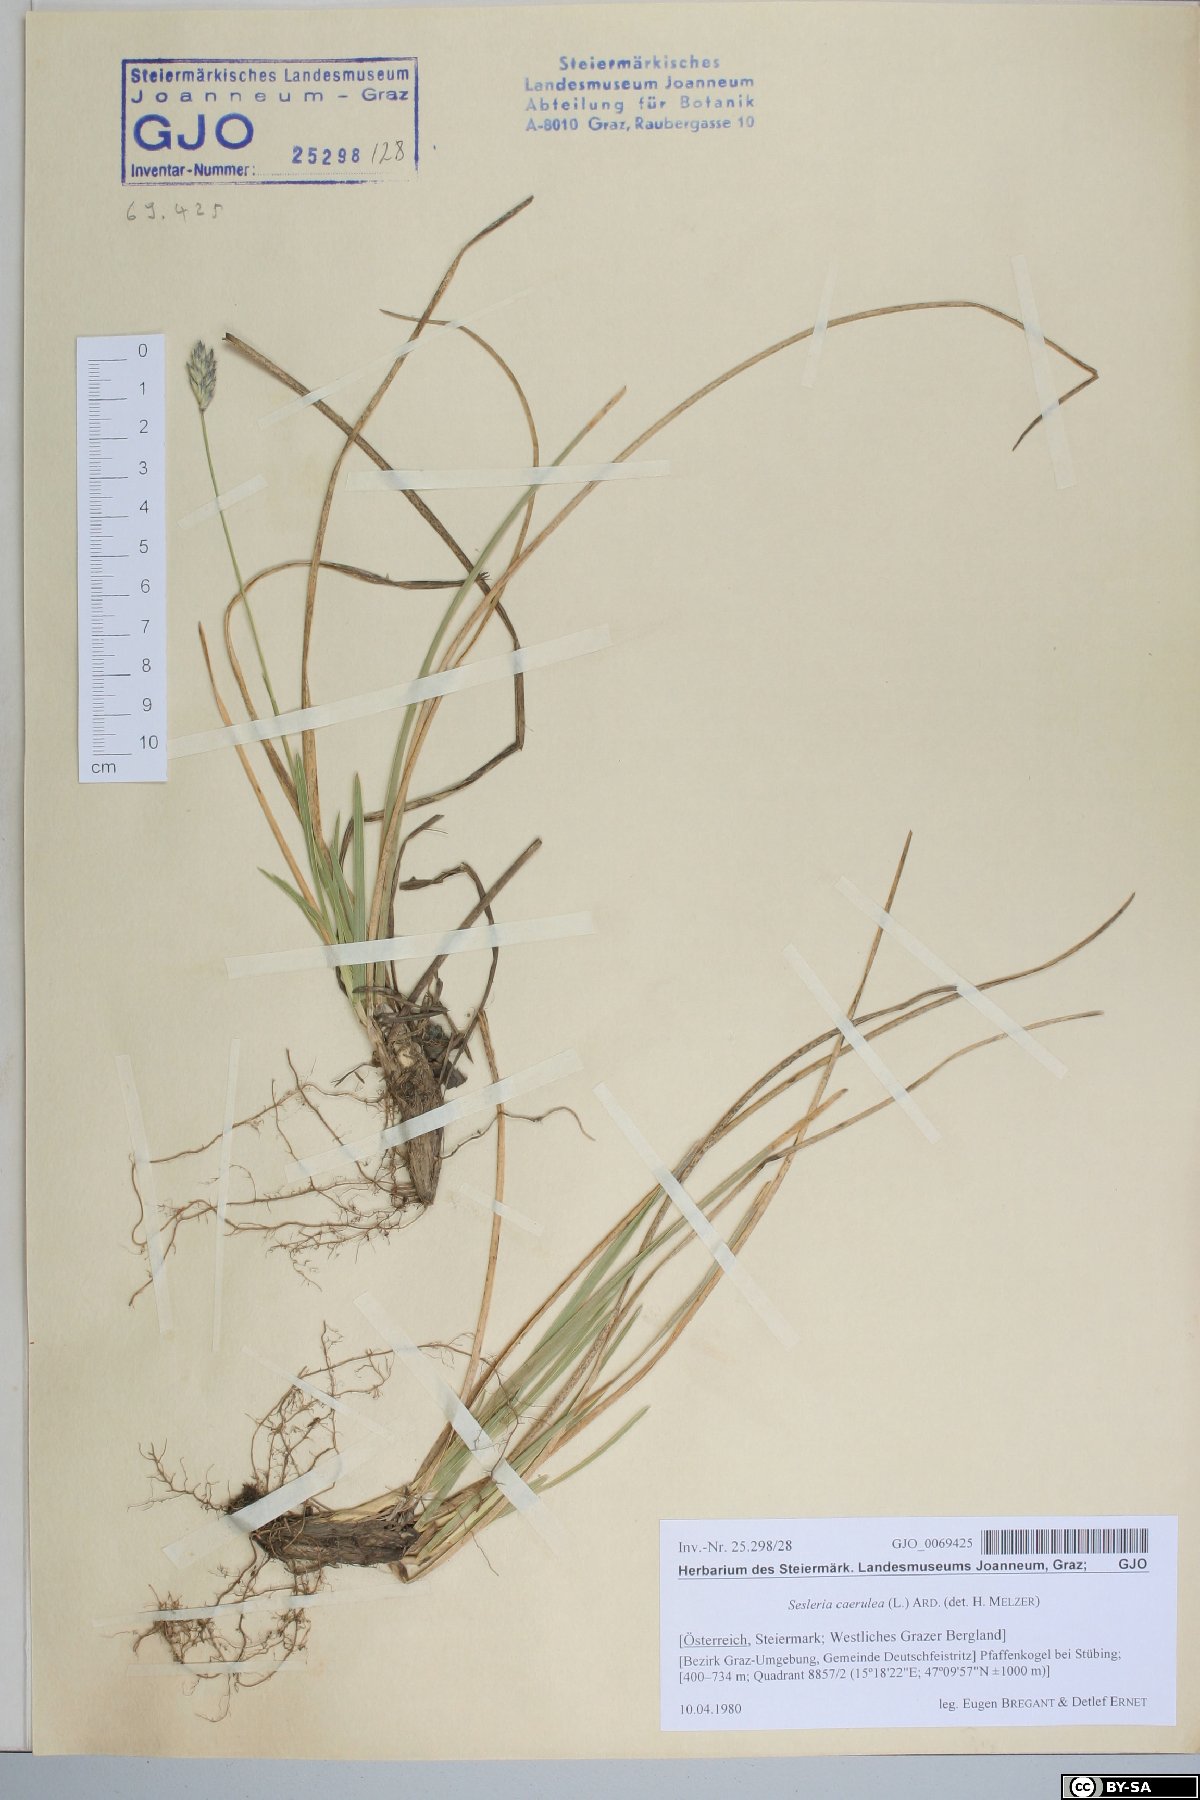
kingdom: Plantae
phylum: Tracheophyta
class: Liliopsida
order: Poales
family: Poaceae
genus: Sesleria
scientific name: Sesleria caerulea
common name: Blue moor-grass
